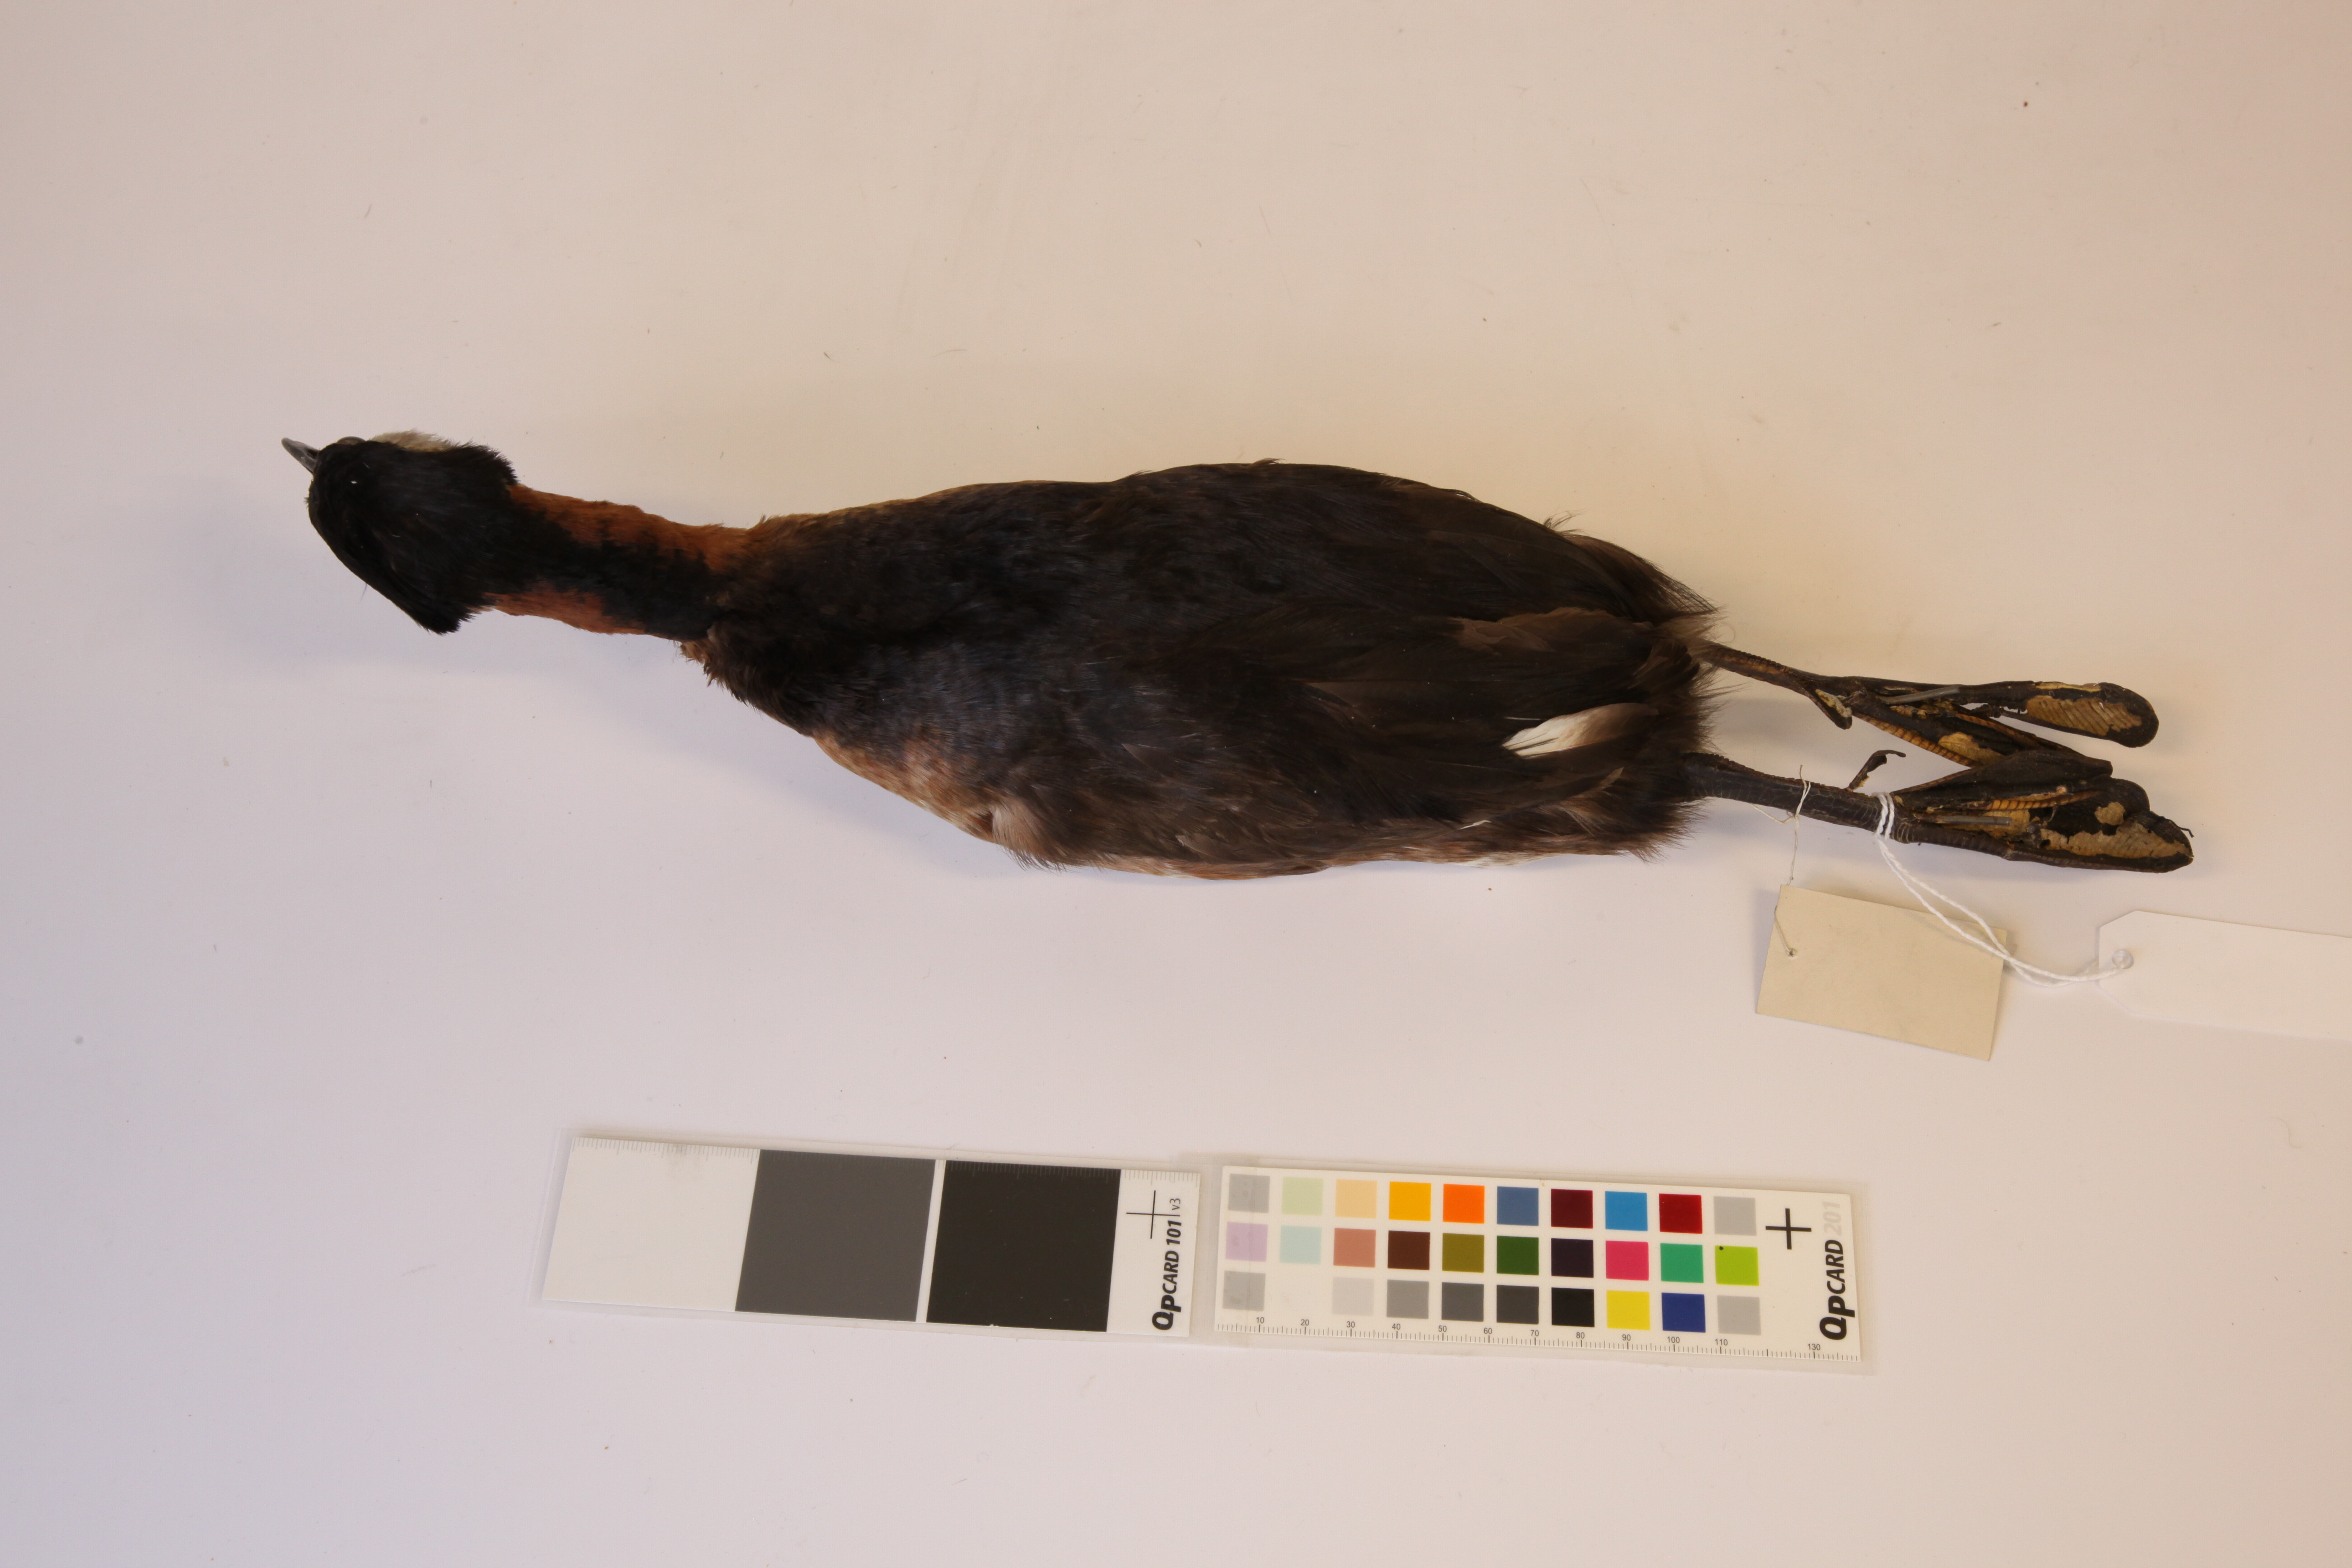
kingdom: Animalia
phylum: Chordata
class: Aves
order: Podicipediformes
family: Podicipedidae
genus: Podiceps
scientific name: Podiceps grisegena
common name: Red-necked grebe
